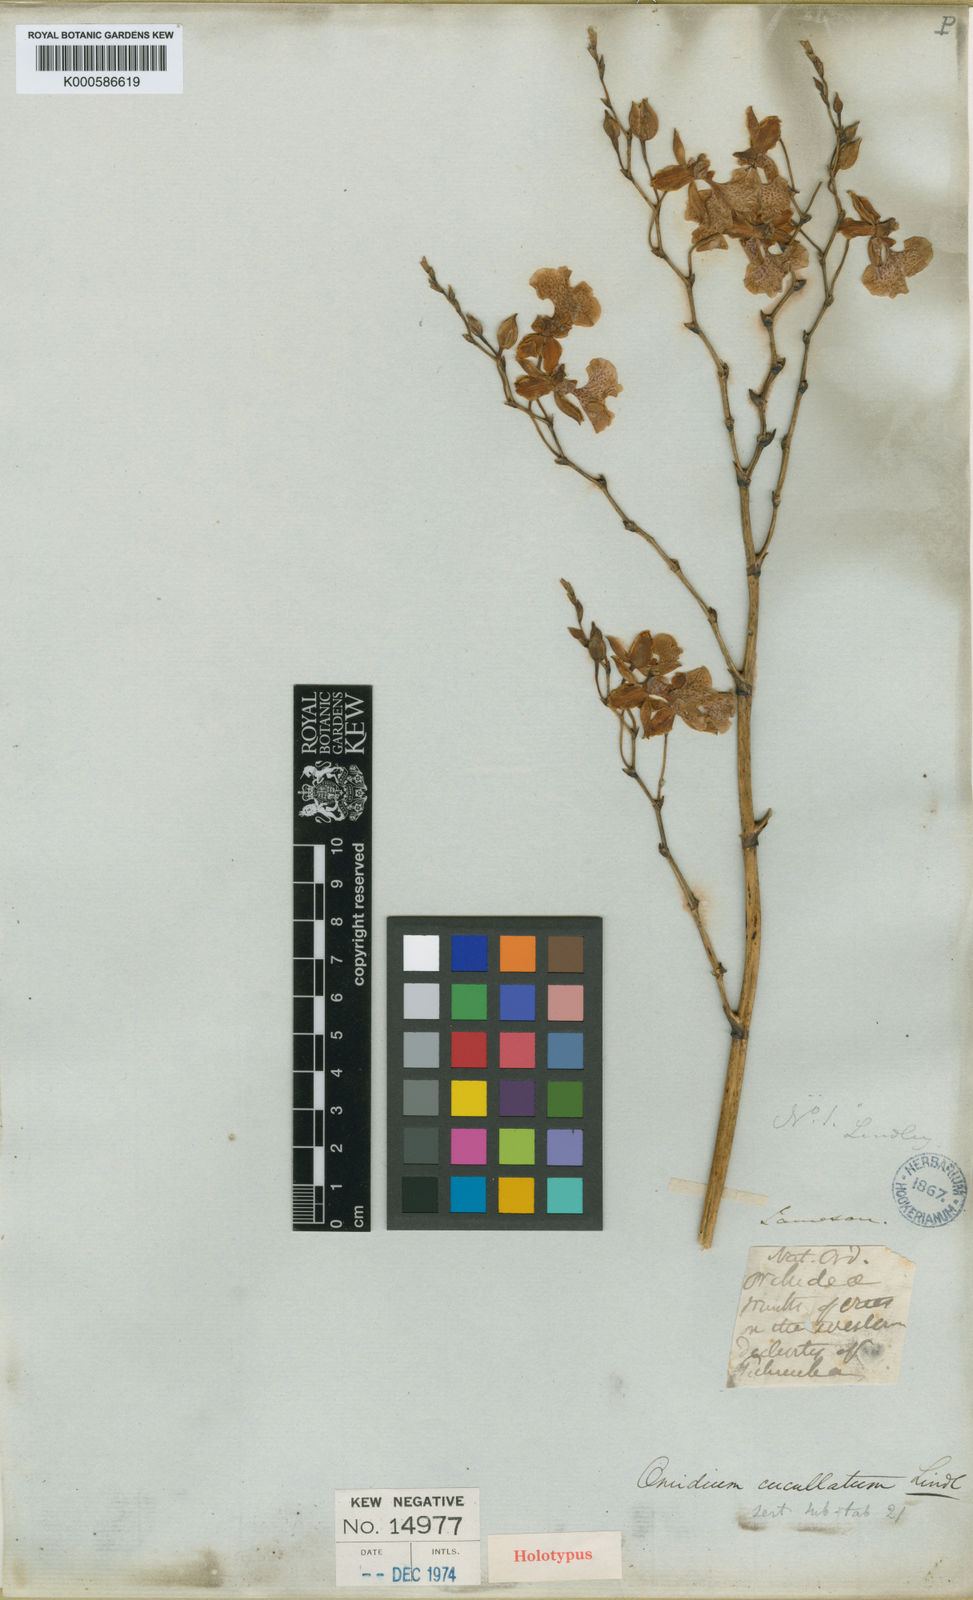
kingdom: Plantae
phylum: Tracheophyta
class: Liliopsida
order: Asparagales
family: Orchidaceae
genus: Caucaea
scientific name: Caucaea olivacea
